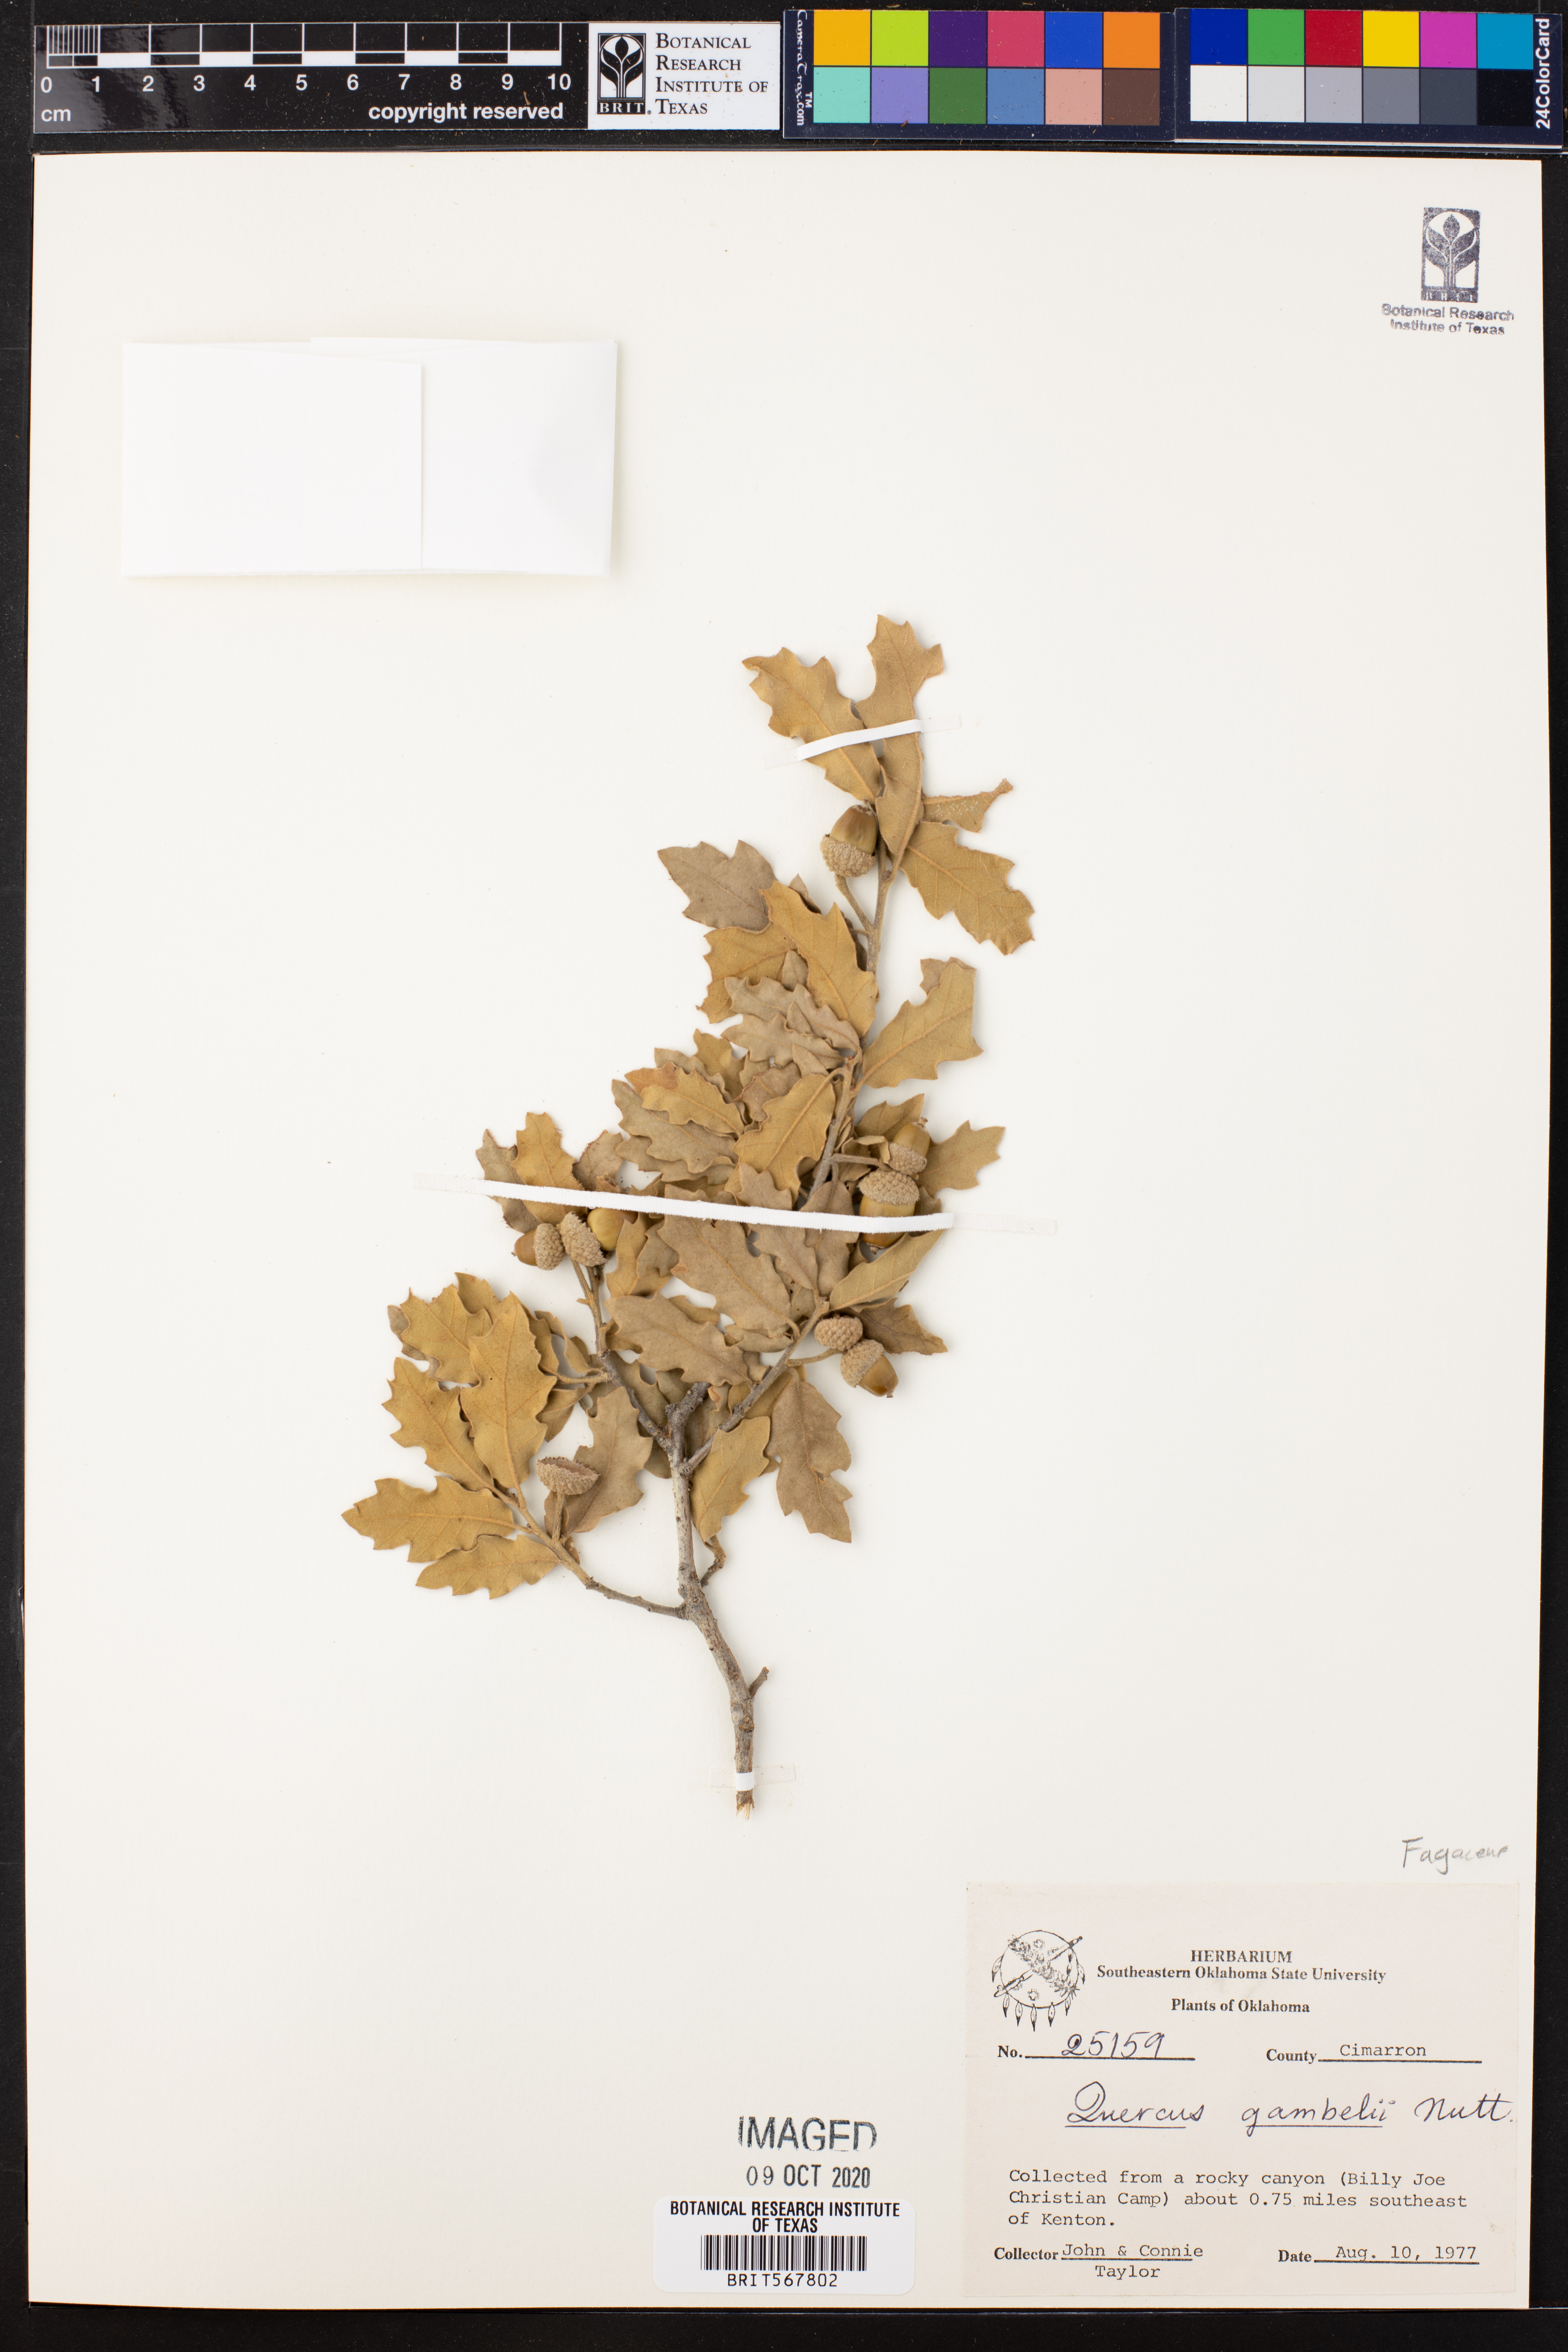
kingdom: Plantae
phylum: Tracheophyta
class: Magnoliopsida
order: Fagales
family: Fagaceae
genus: Quercus
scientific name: Quercus mohriana
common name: Mohr oak
